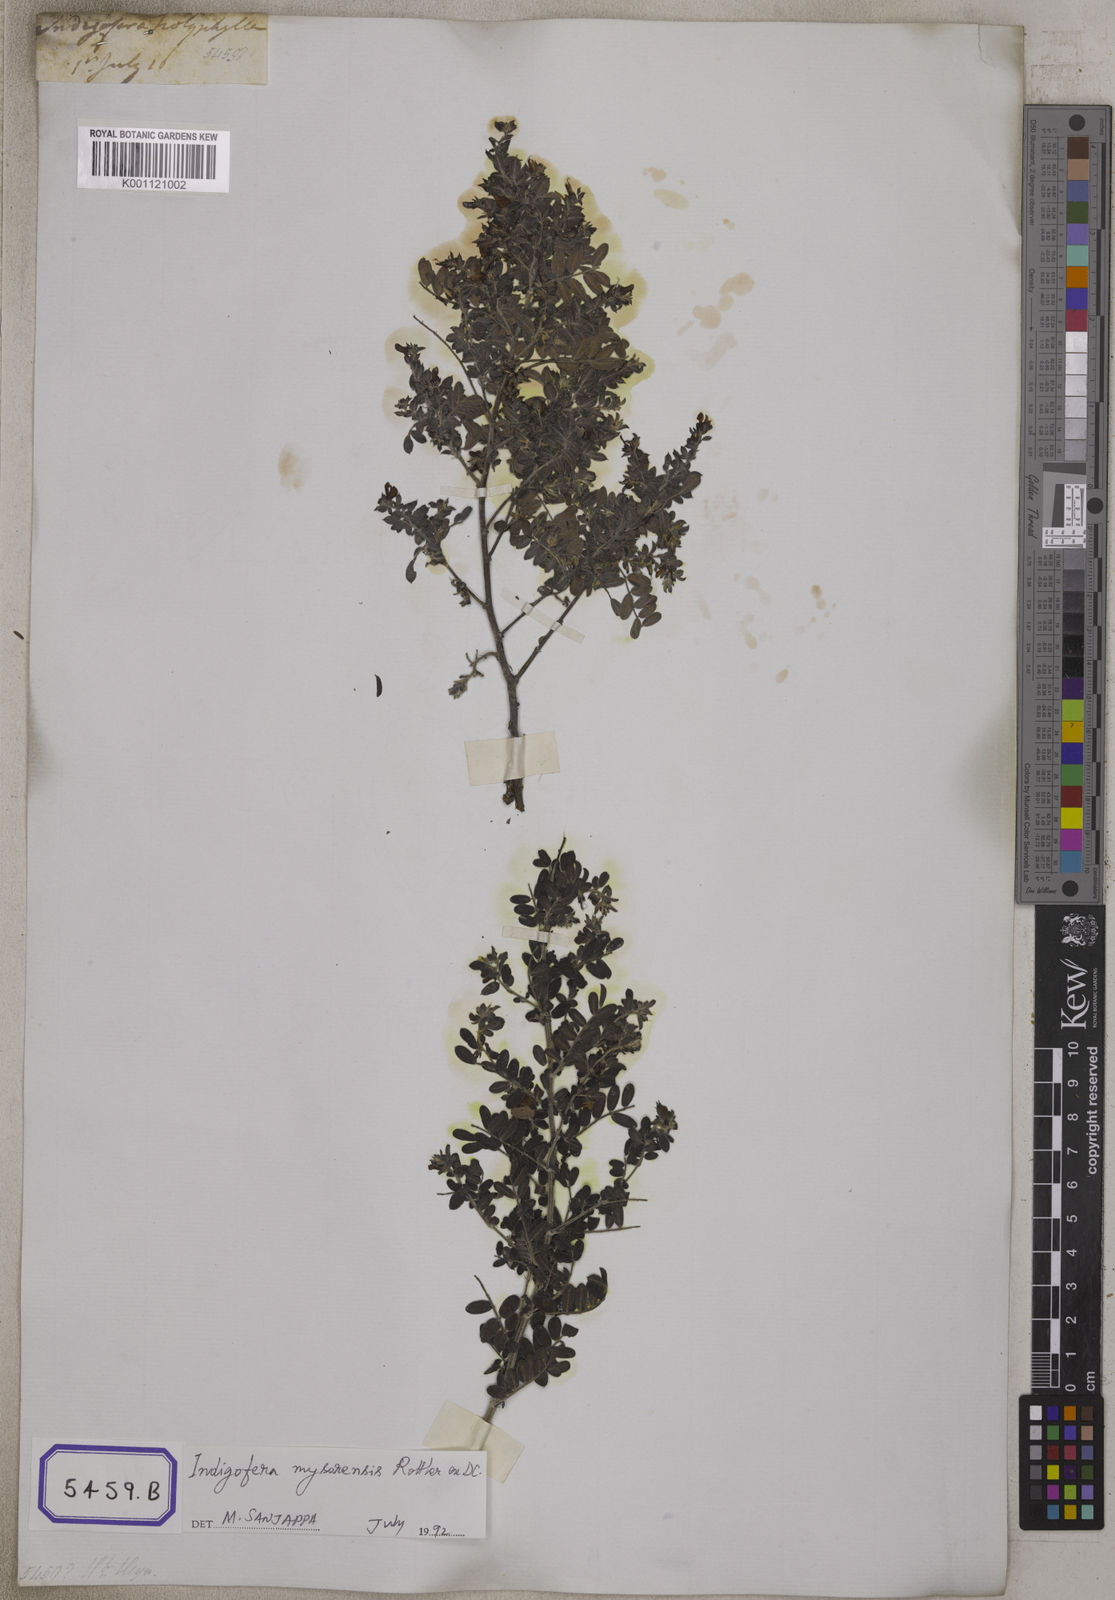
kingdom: Plantae
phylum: Tracheophyta
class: Magnoliopsida
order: Fabales
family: Fabaceae
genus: Indigofera
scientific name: Indigofera mysorensis
